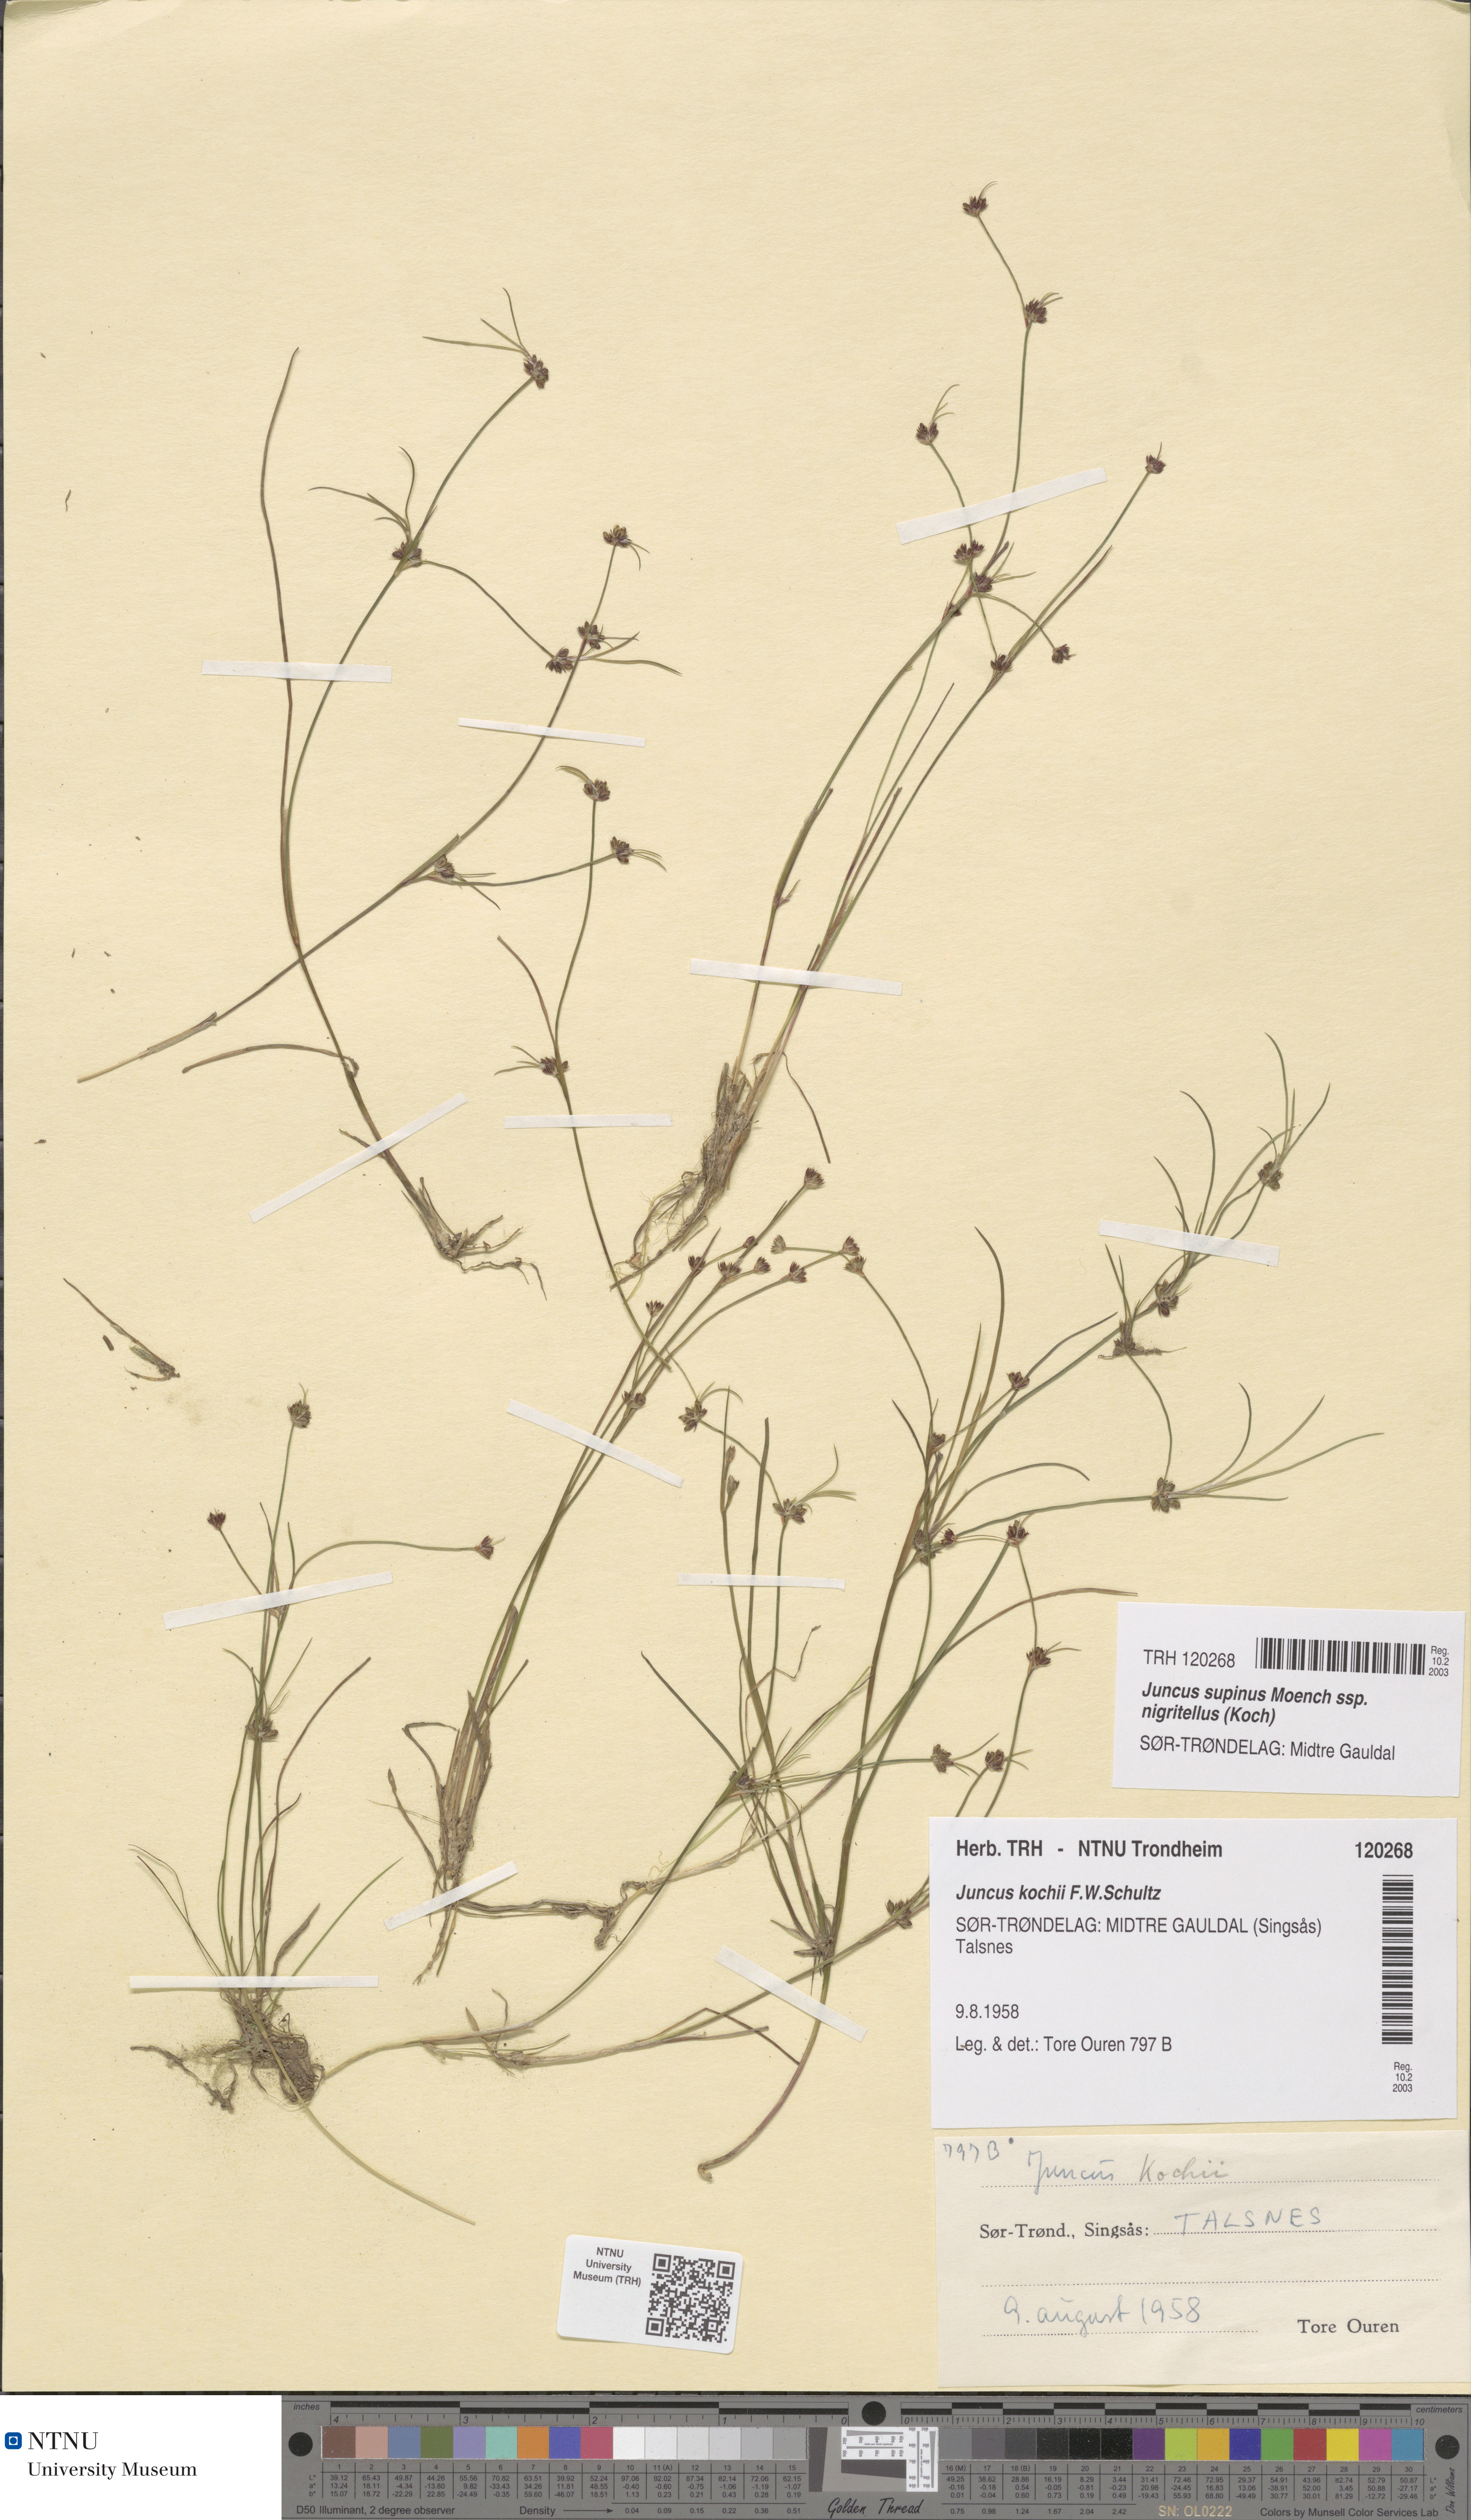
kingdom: Plantae
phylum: Tracheophyta
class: Liliopsida
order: Poales
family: Juncaceae
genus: Juncus
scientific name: Juncus bulbosus
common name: Bulbous rush
